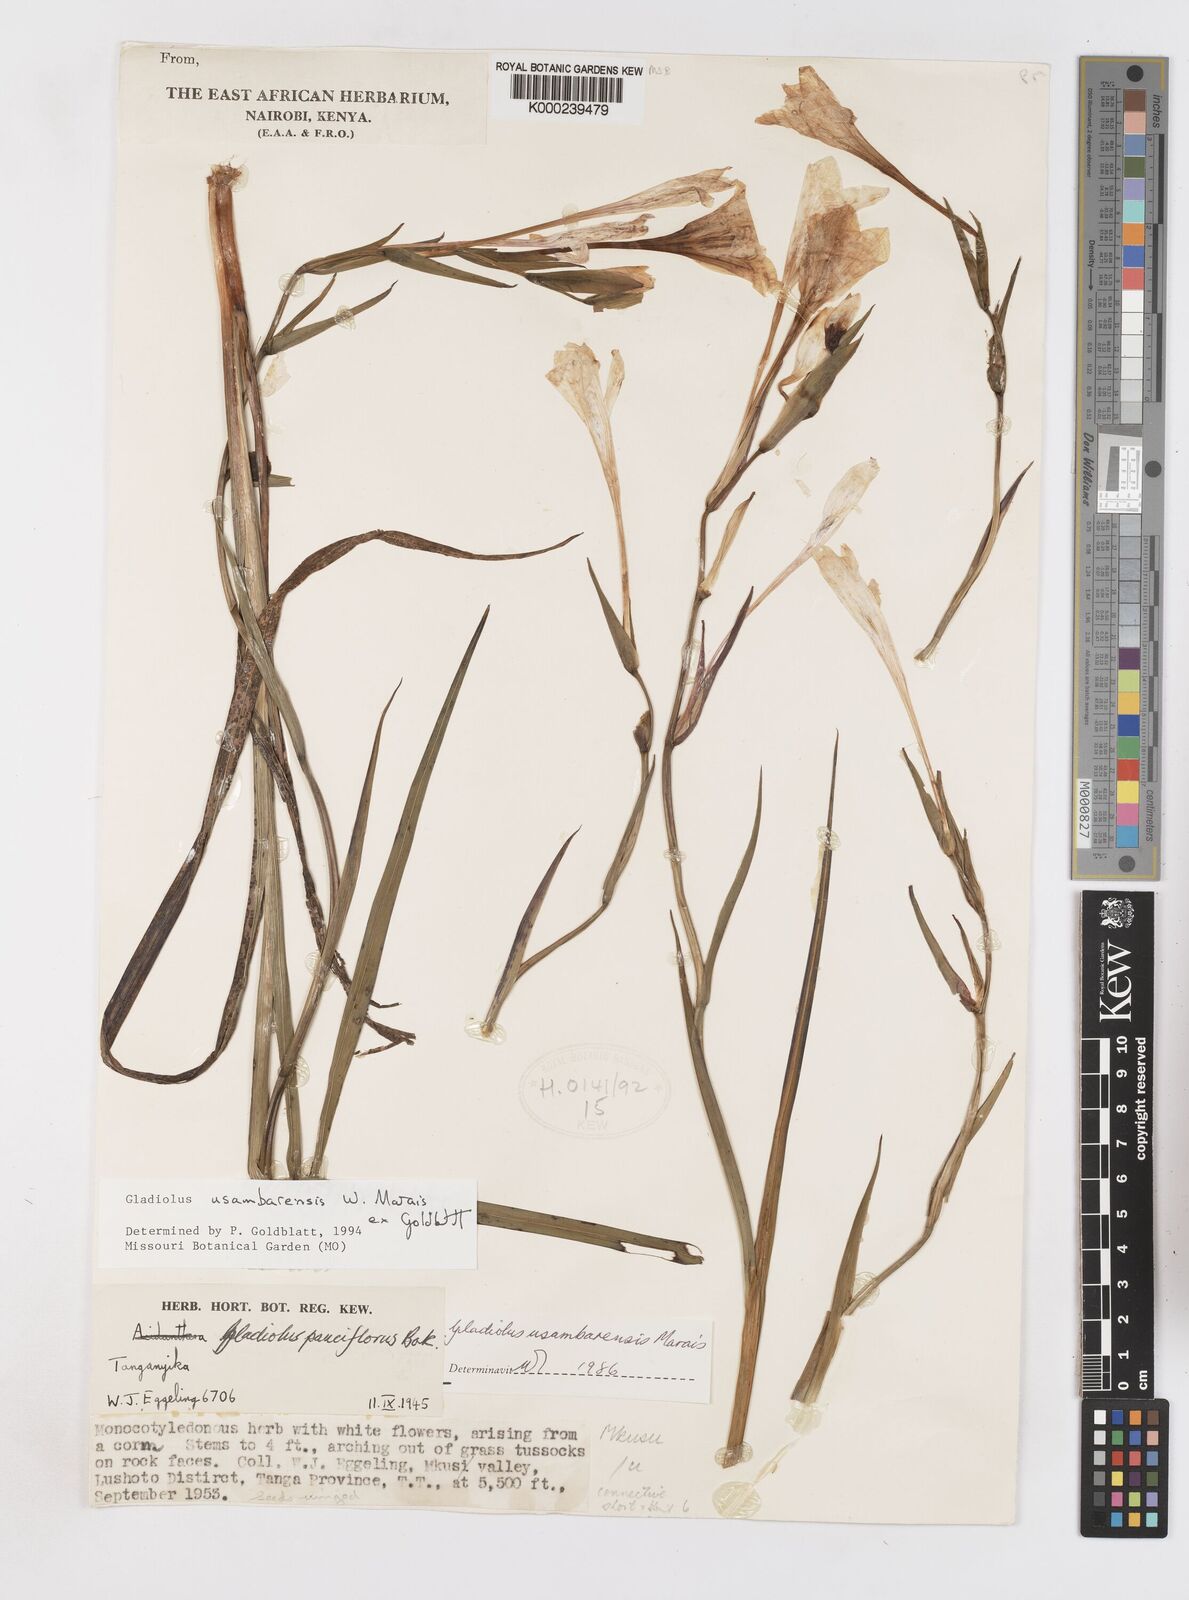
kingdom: Plantae
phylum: Tracheophyta
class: Liliopsida
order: Asparagales
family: Iridaceae
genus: Gladiolus
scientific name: Gladiolus usambarensis
